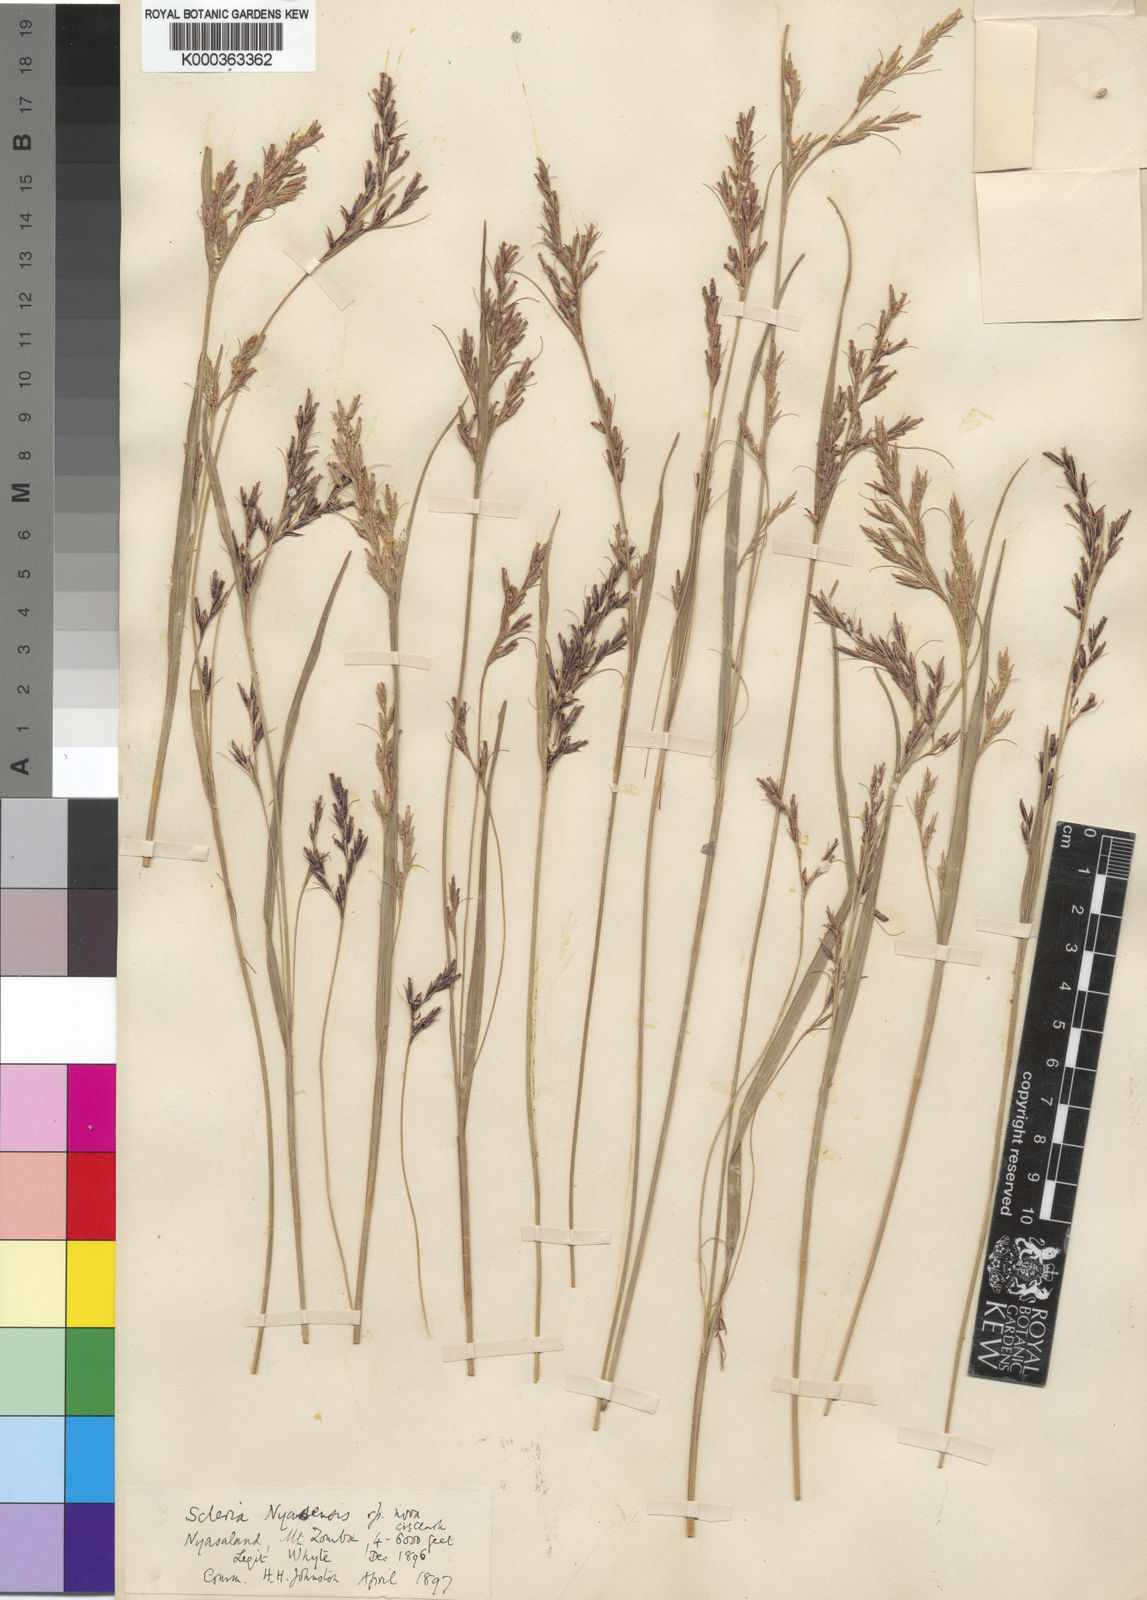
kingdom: Plantae
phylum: Tracheophyta
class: Liliopsida
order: Poales
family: Cyperaceae
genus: Scleria
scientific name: Scleria nyasensis
